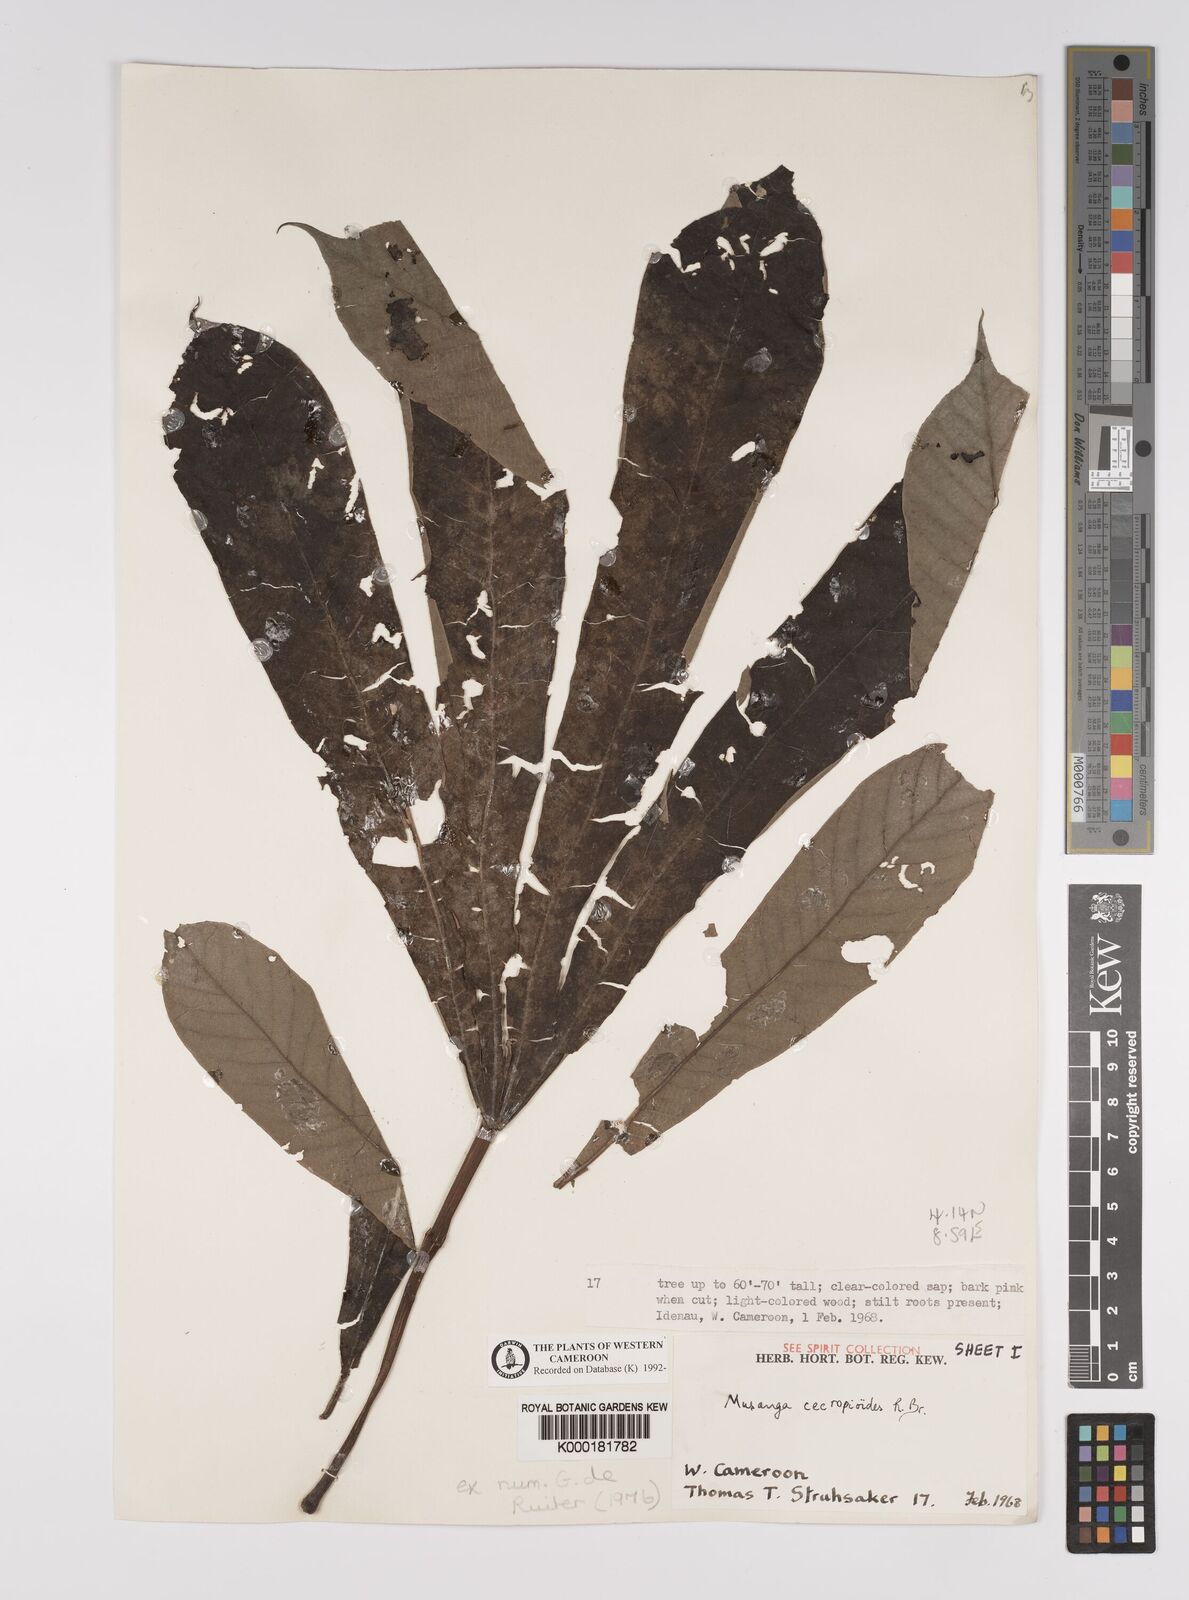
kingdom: Plantae
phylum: Tracheophyta
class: Magnoliopsida
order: Rosales
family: Urticaceae
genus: Musanga
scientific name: Musanga cecropioides
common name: African corkwood
